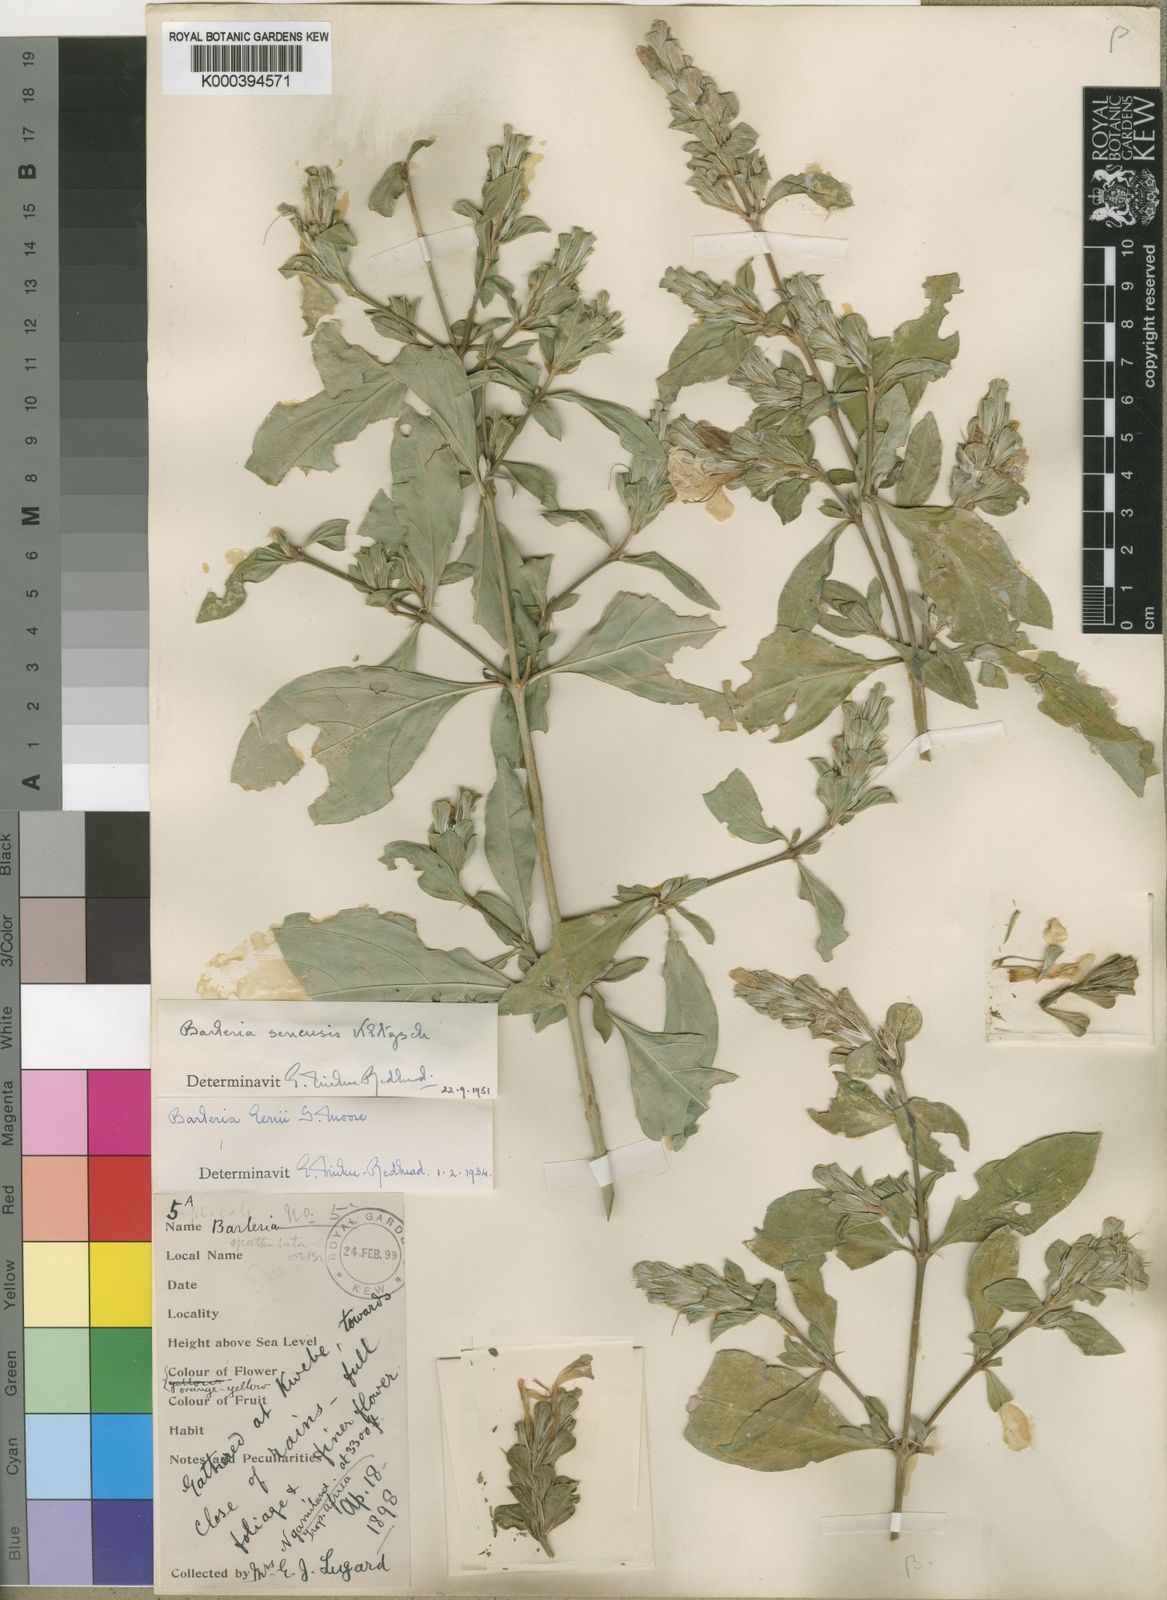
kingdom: Plantae
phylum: Tracheophyta
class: Magnoliopsida
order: Lamiales
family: Acanthaceae
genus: Barleria
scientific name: Barleria senensis
